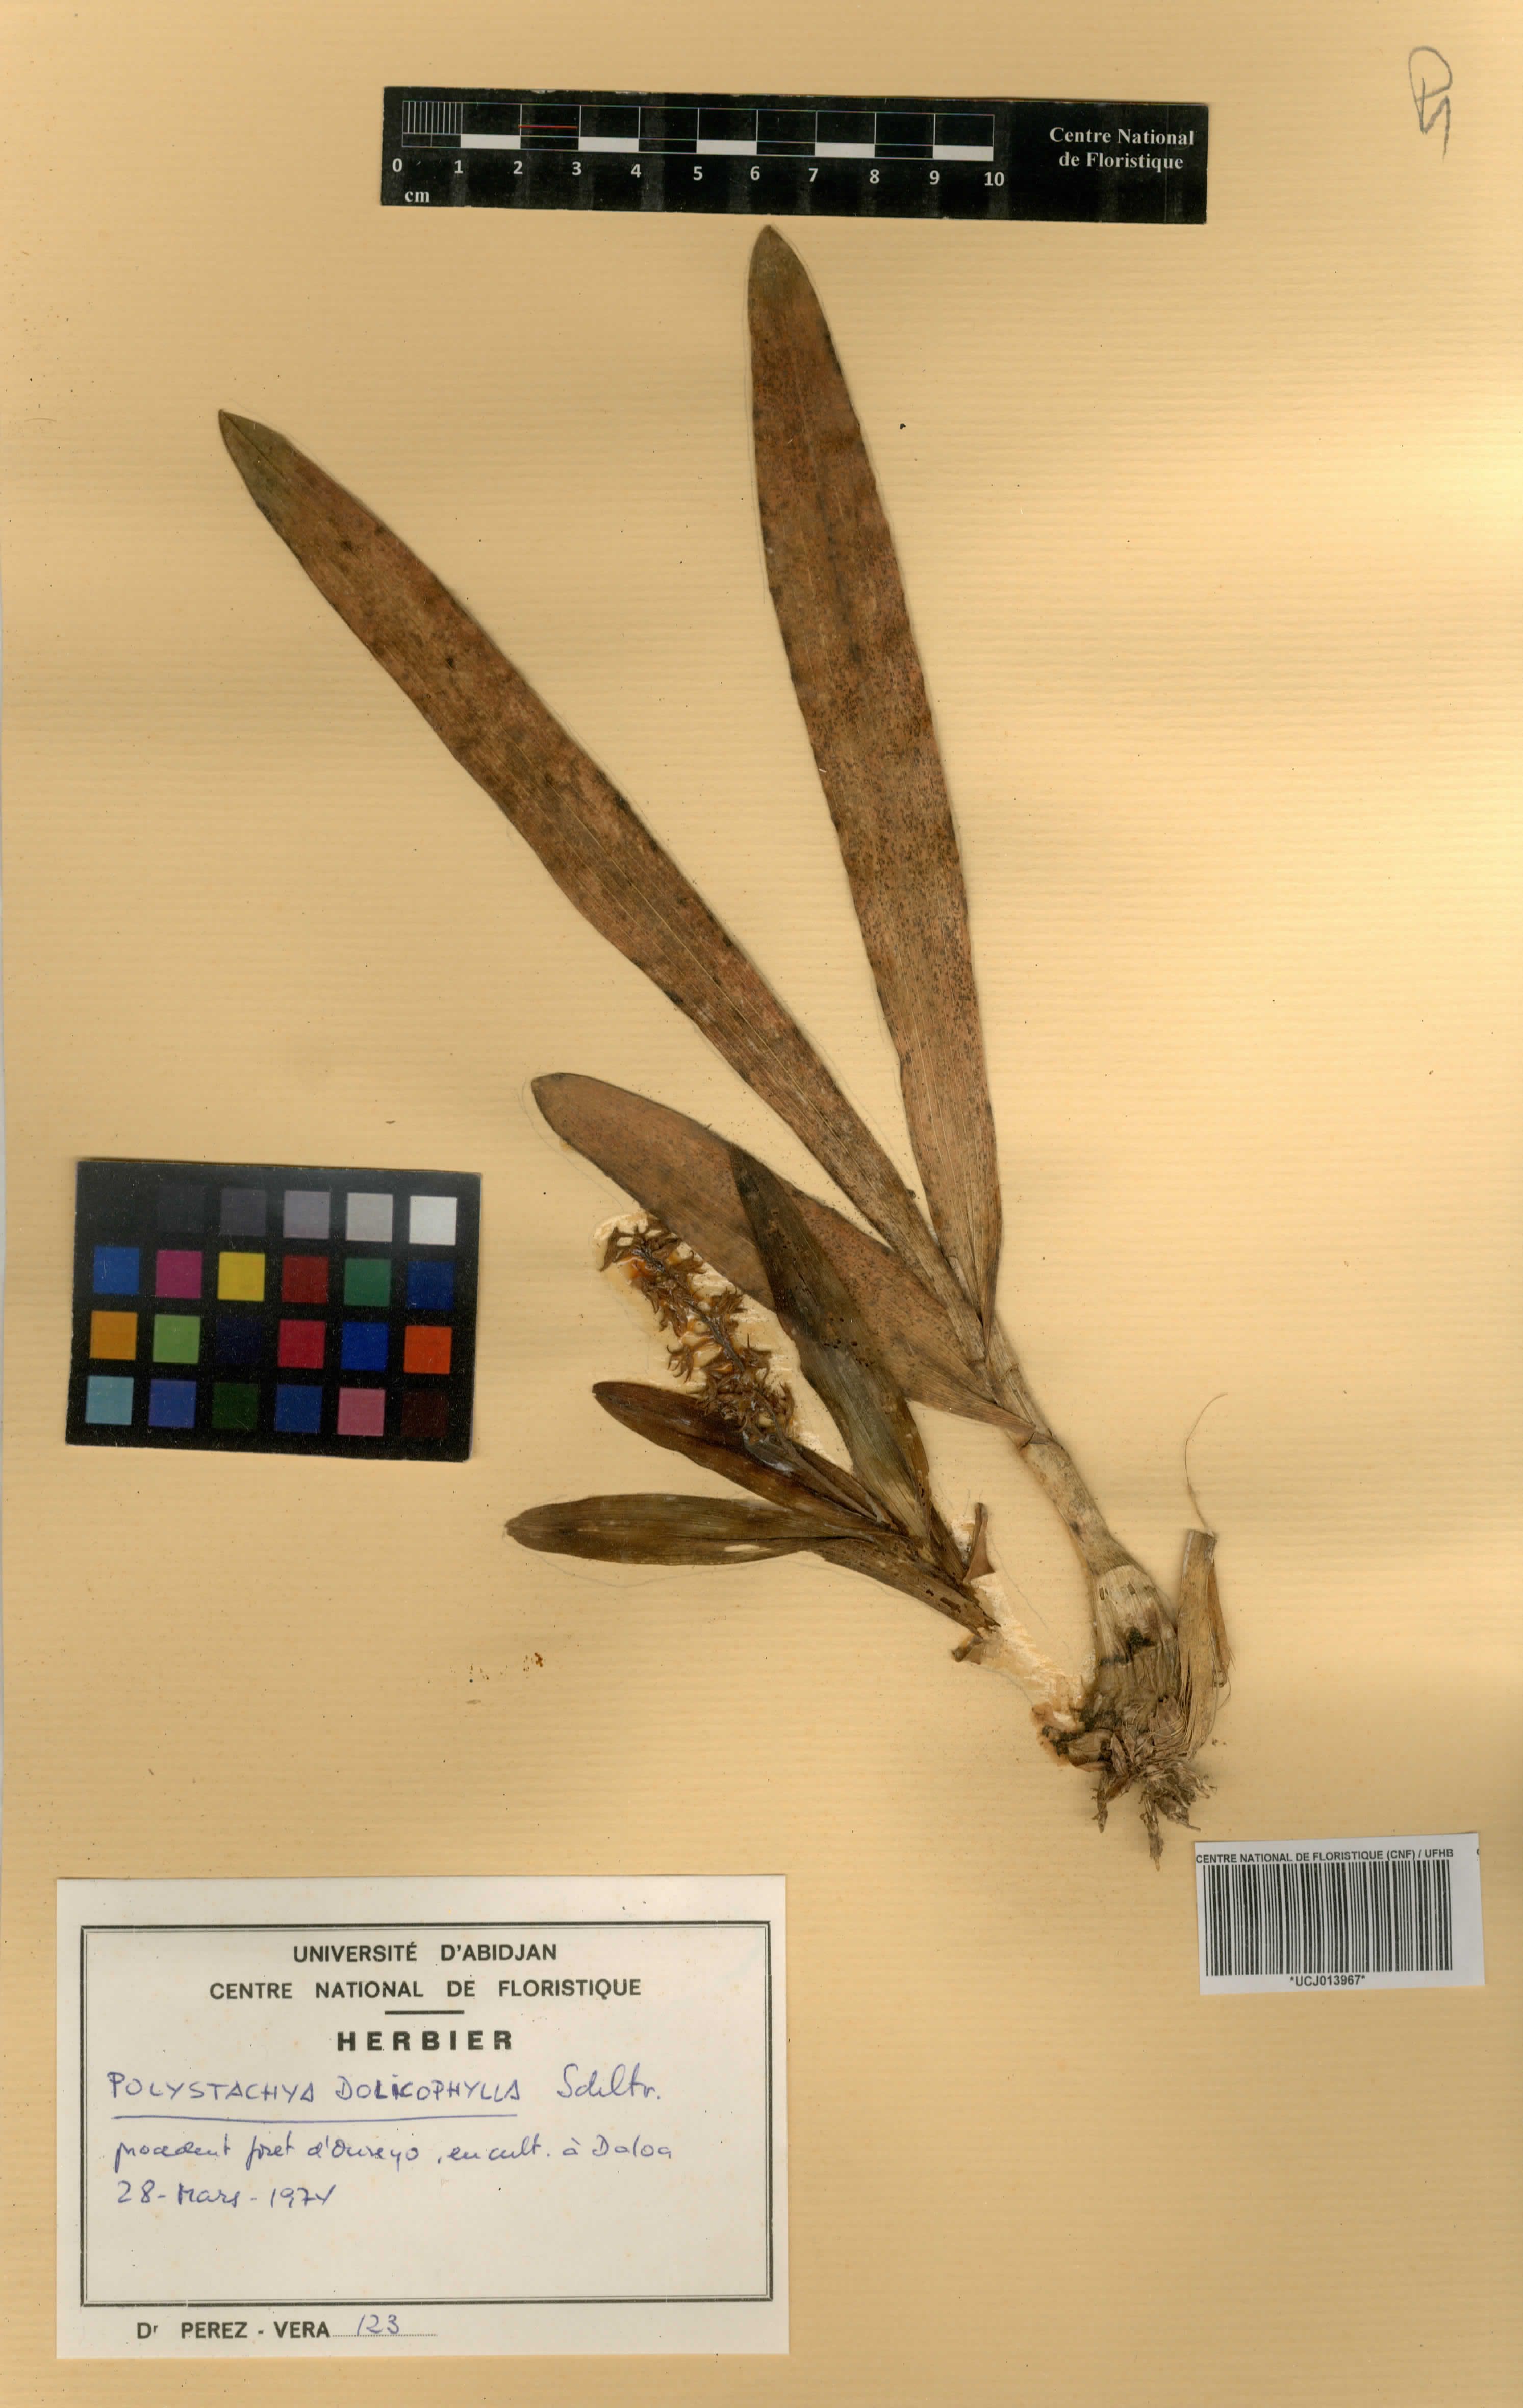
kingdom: Plantae
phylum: Tracheophyta
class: Liliopsida
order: Asparagales
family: Orchidaceae
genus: Polystachya
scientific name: Polystachya dolichophylla
